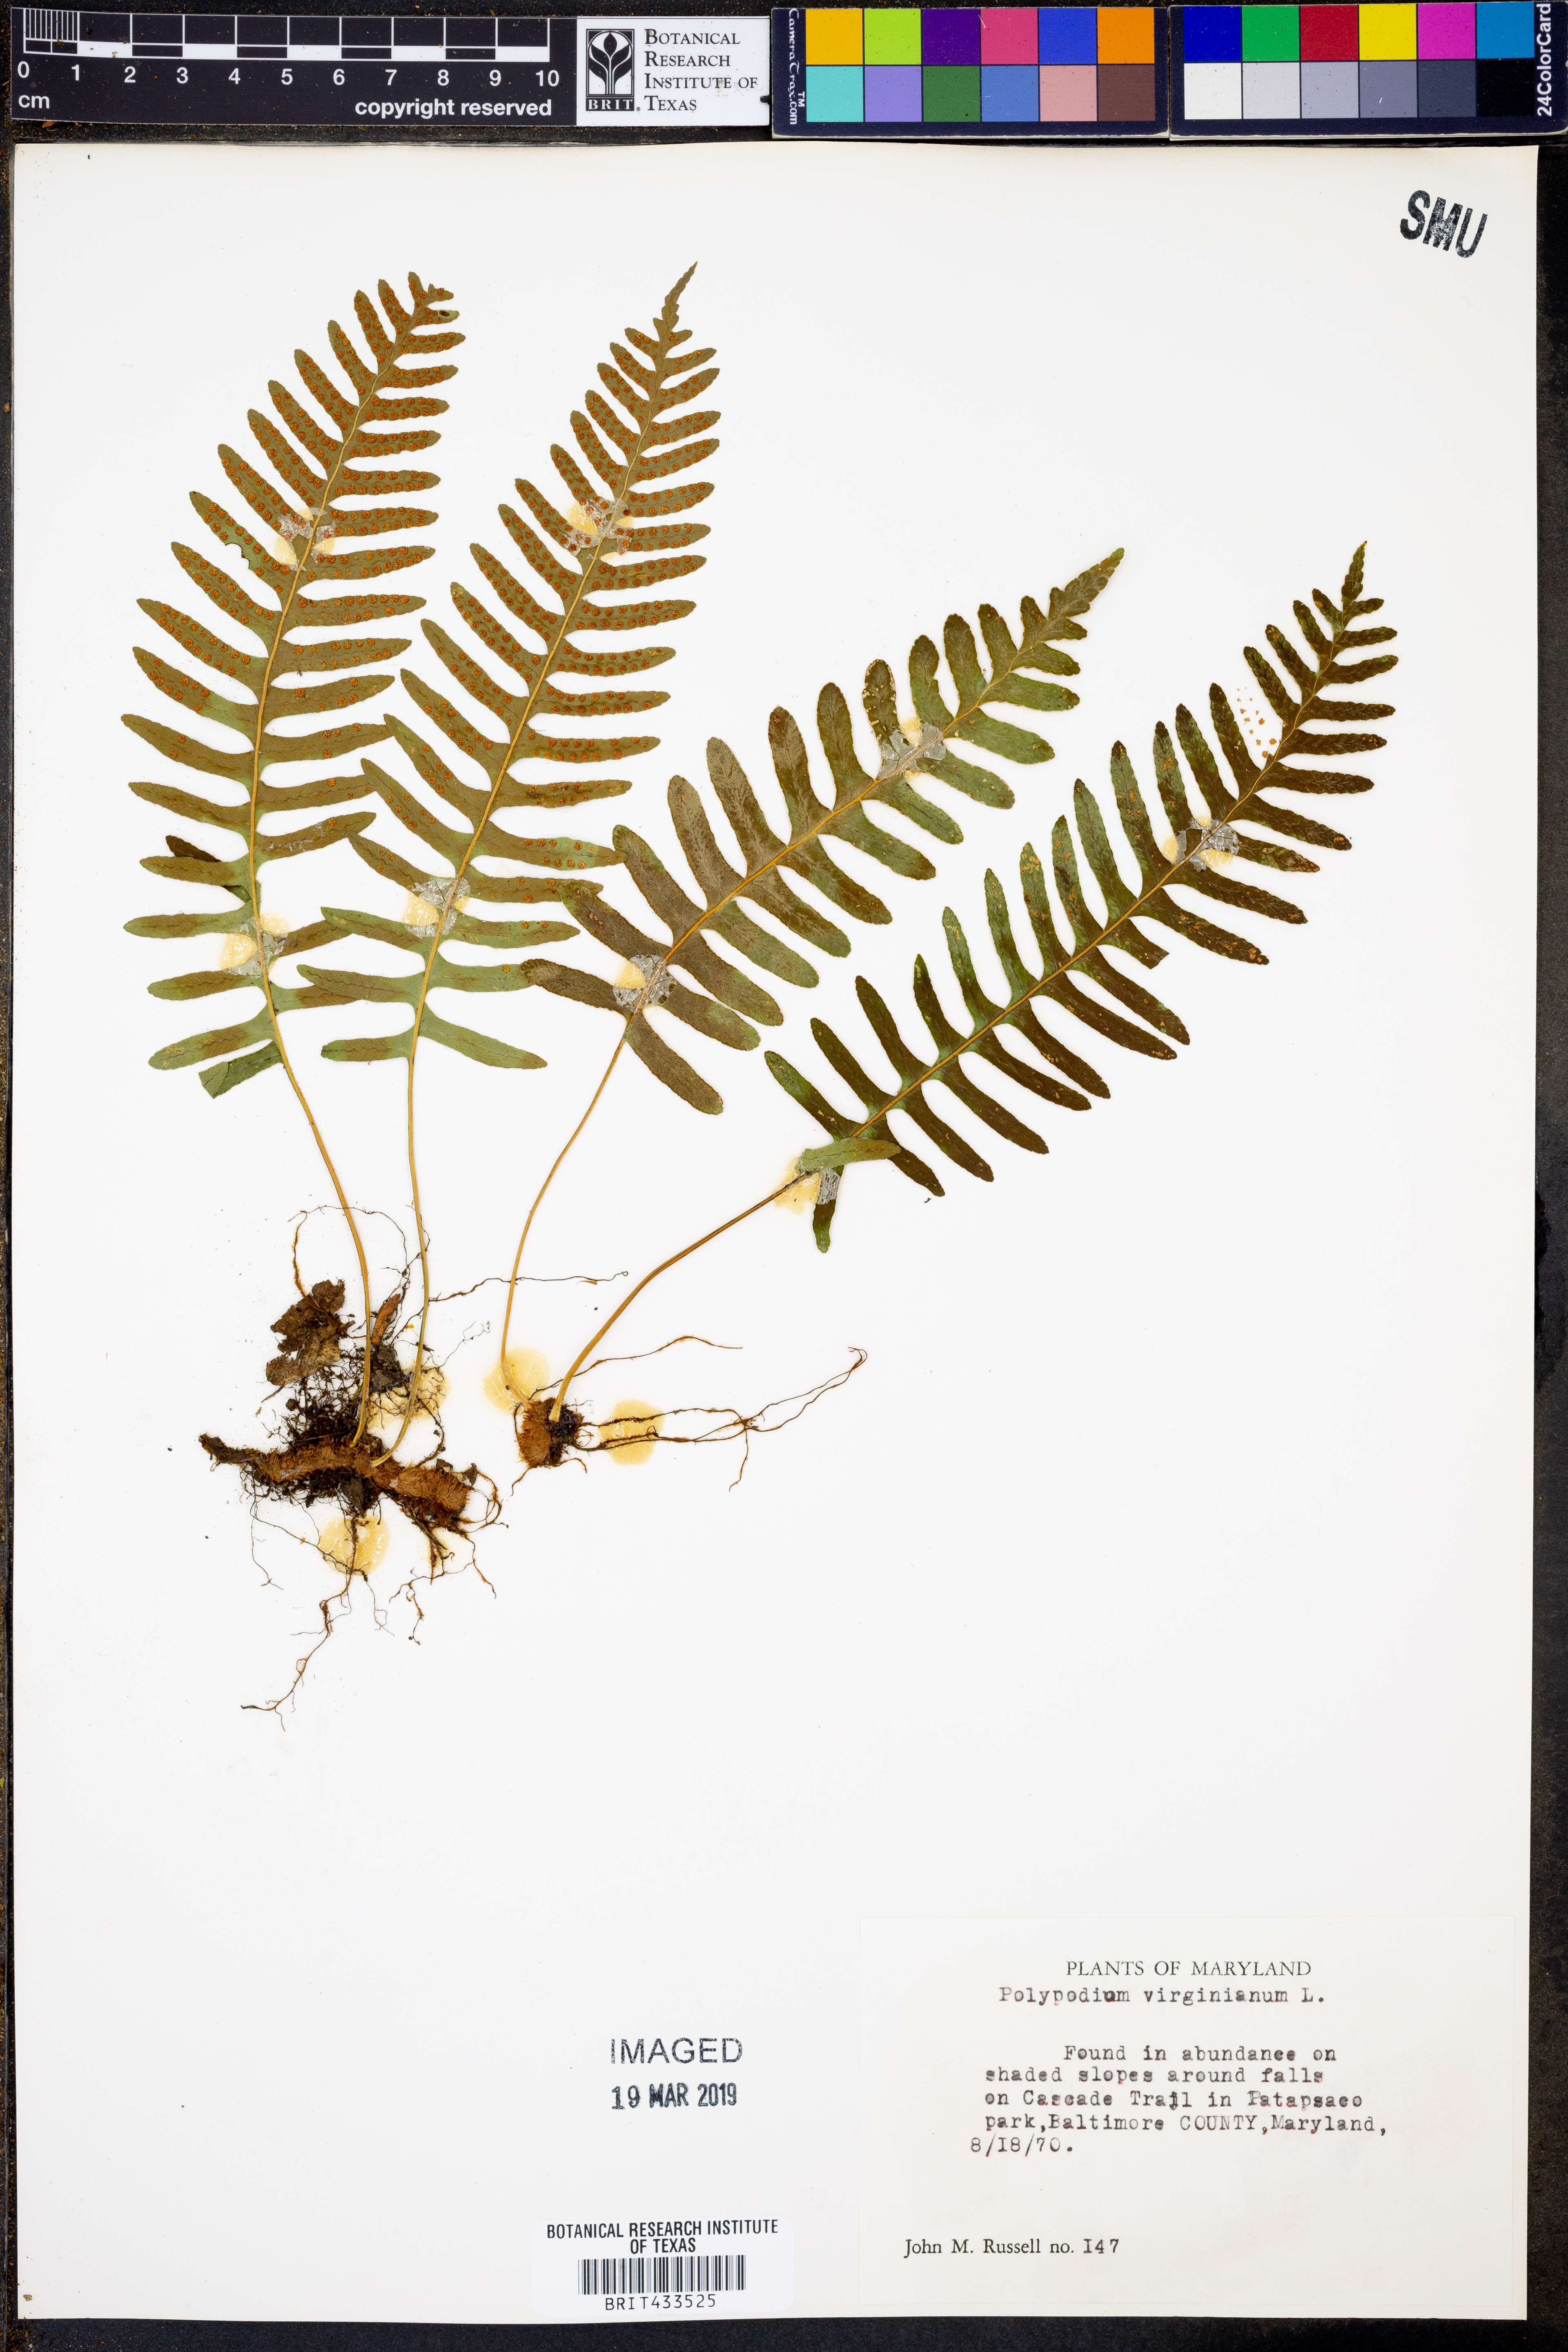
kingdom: Plantae
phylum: Tracheophyta
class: Polypodiopsida
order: Polypodiales
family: Polypodiaceae
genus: Polypodium
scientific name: Polypodium virginianum
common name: American wall fern
